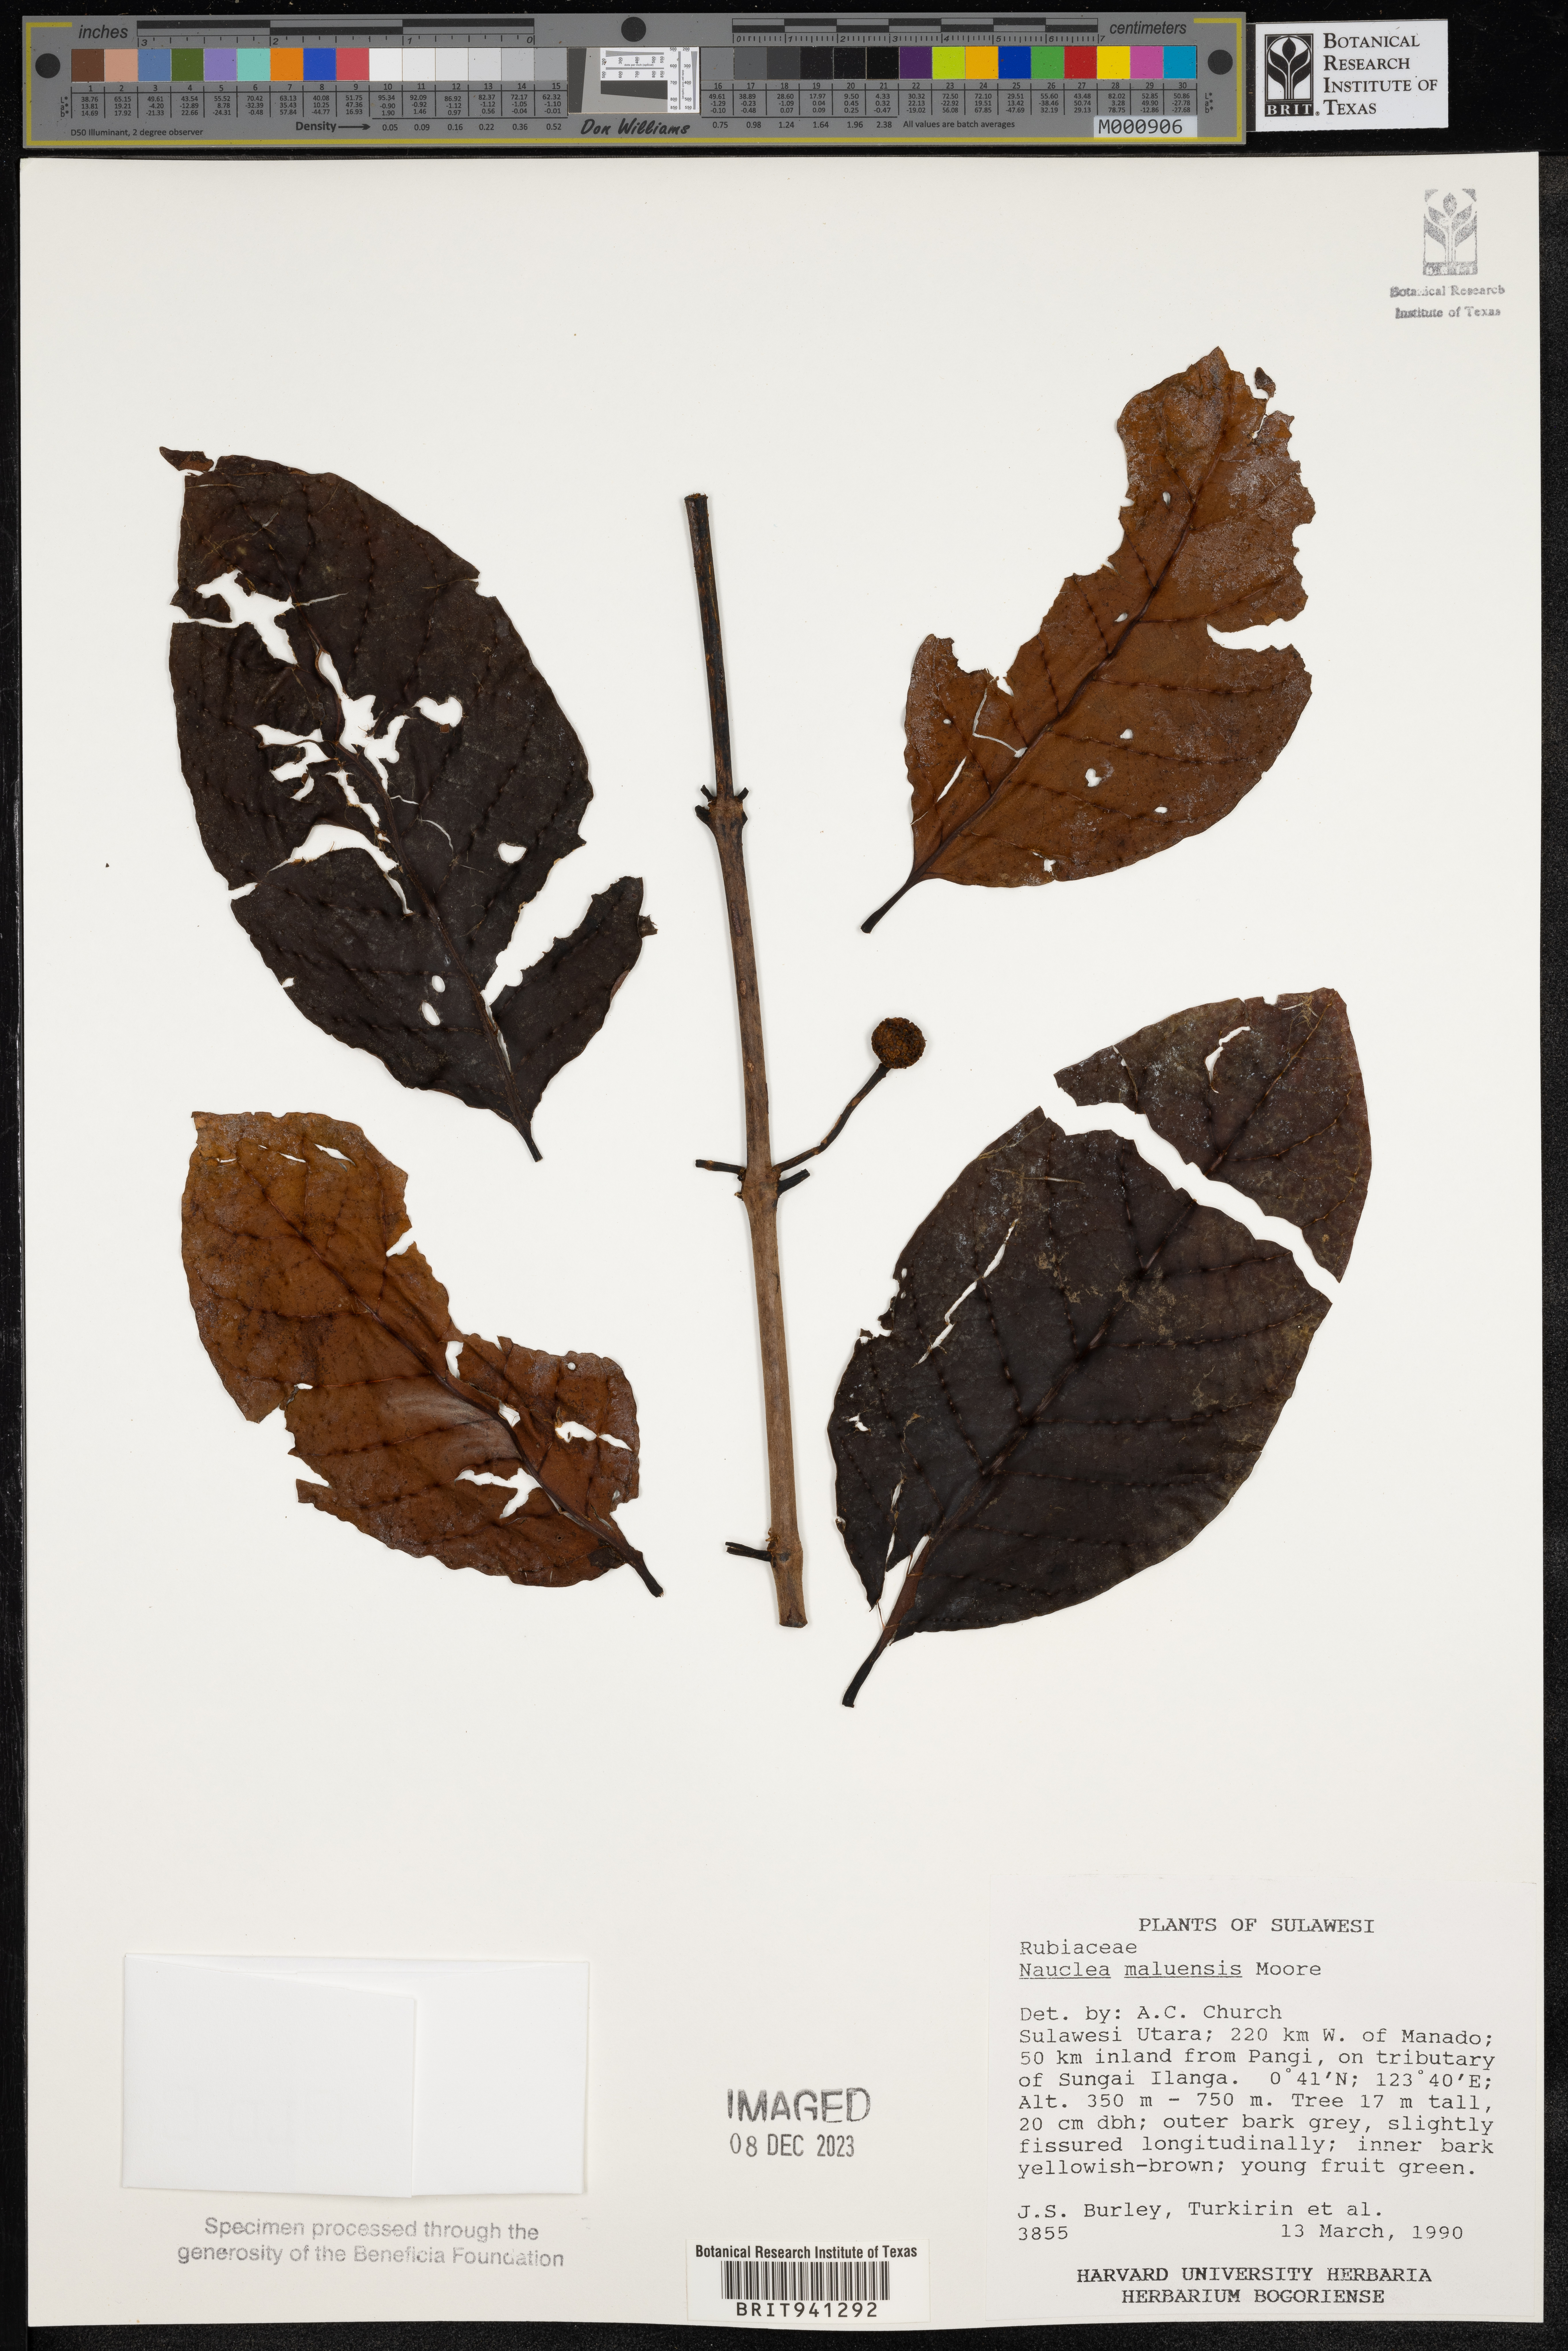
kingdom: Plantae
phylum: Tracheophyta
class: Magnoliopsida
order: Gentianales
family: Rubiaceae
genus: Nauclea
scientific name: Nauclea
